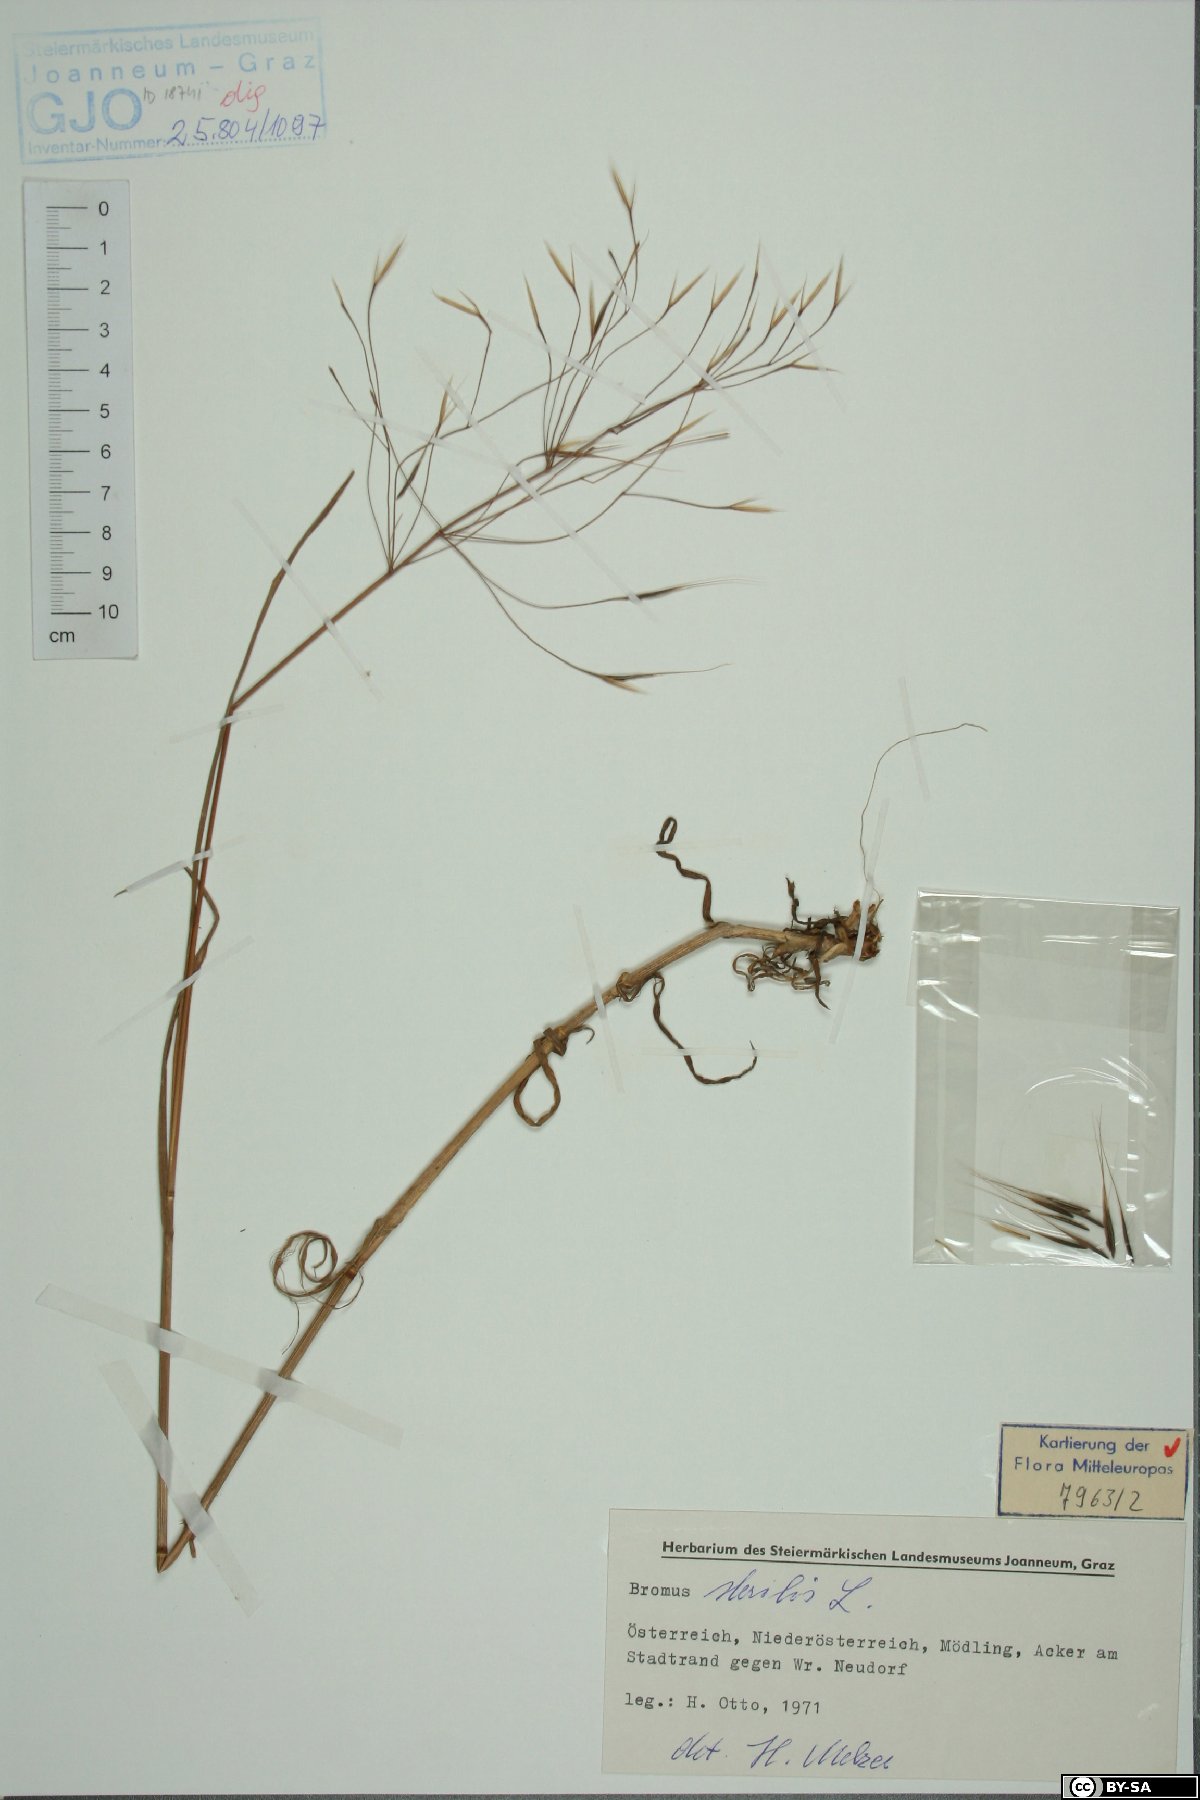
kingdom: Plantae
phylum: Tracheophyta
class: Liliopsida
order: Poales
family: Poaceae
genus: Bromus
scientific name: Bromus sterilis
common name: Poverty brome
